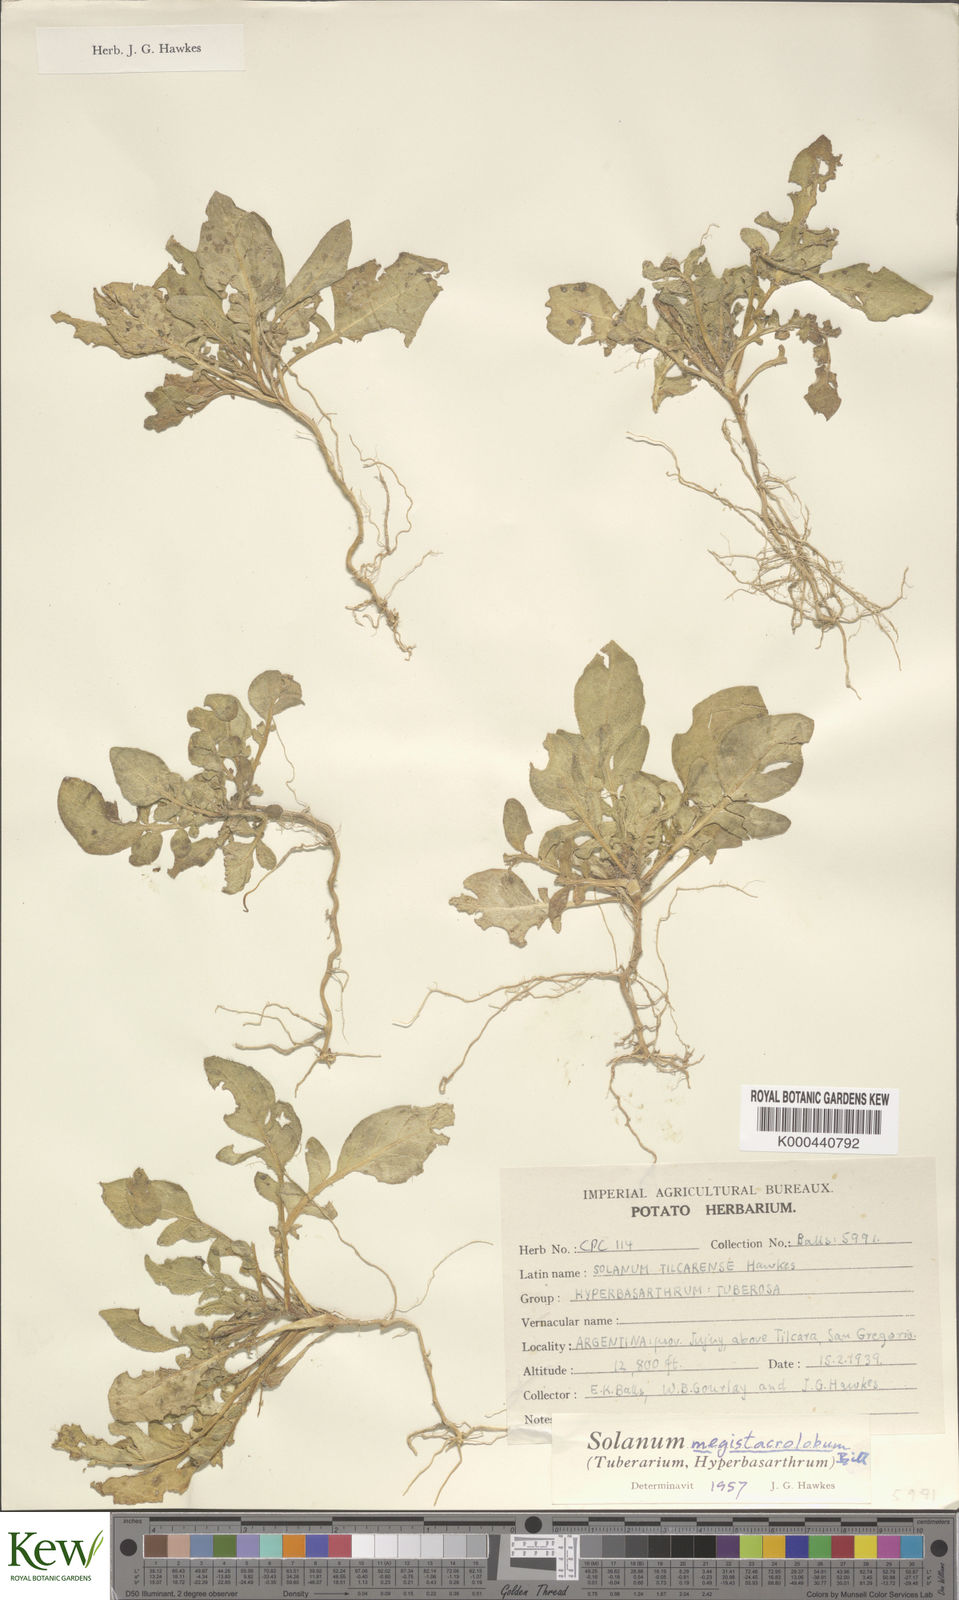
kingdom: Plantae
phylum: Tracheophyta
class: Magnoliopsida
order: Solanales
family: Solanaceae
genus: Solanum
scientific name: Solanum boliviense
